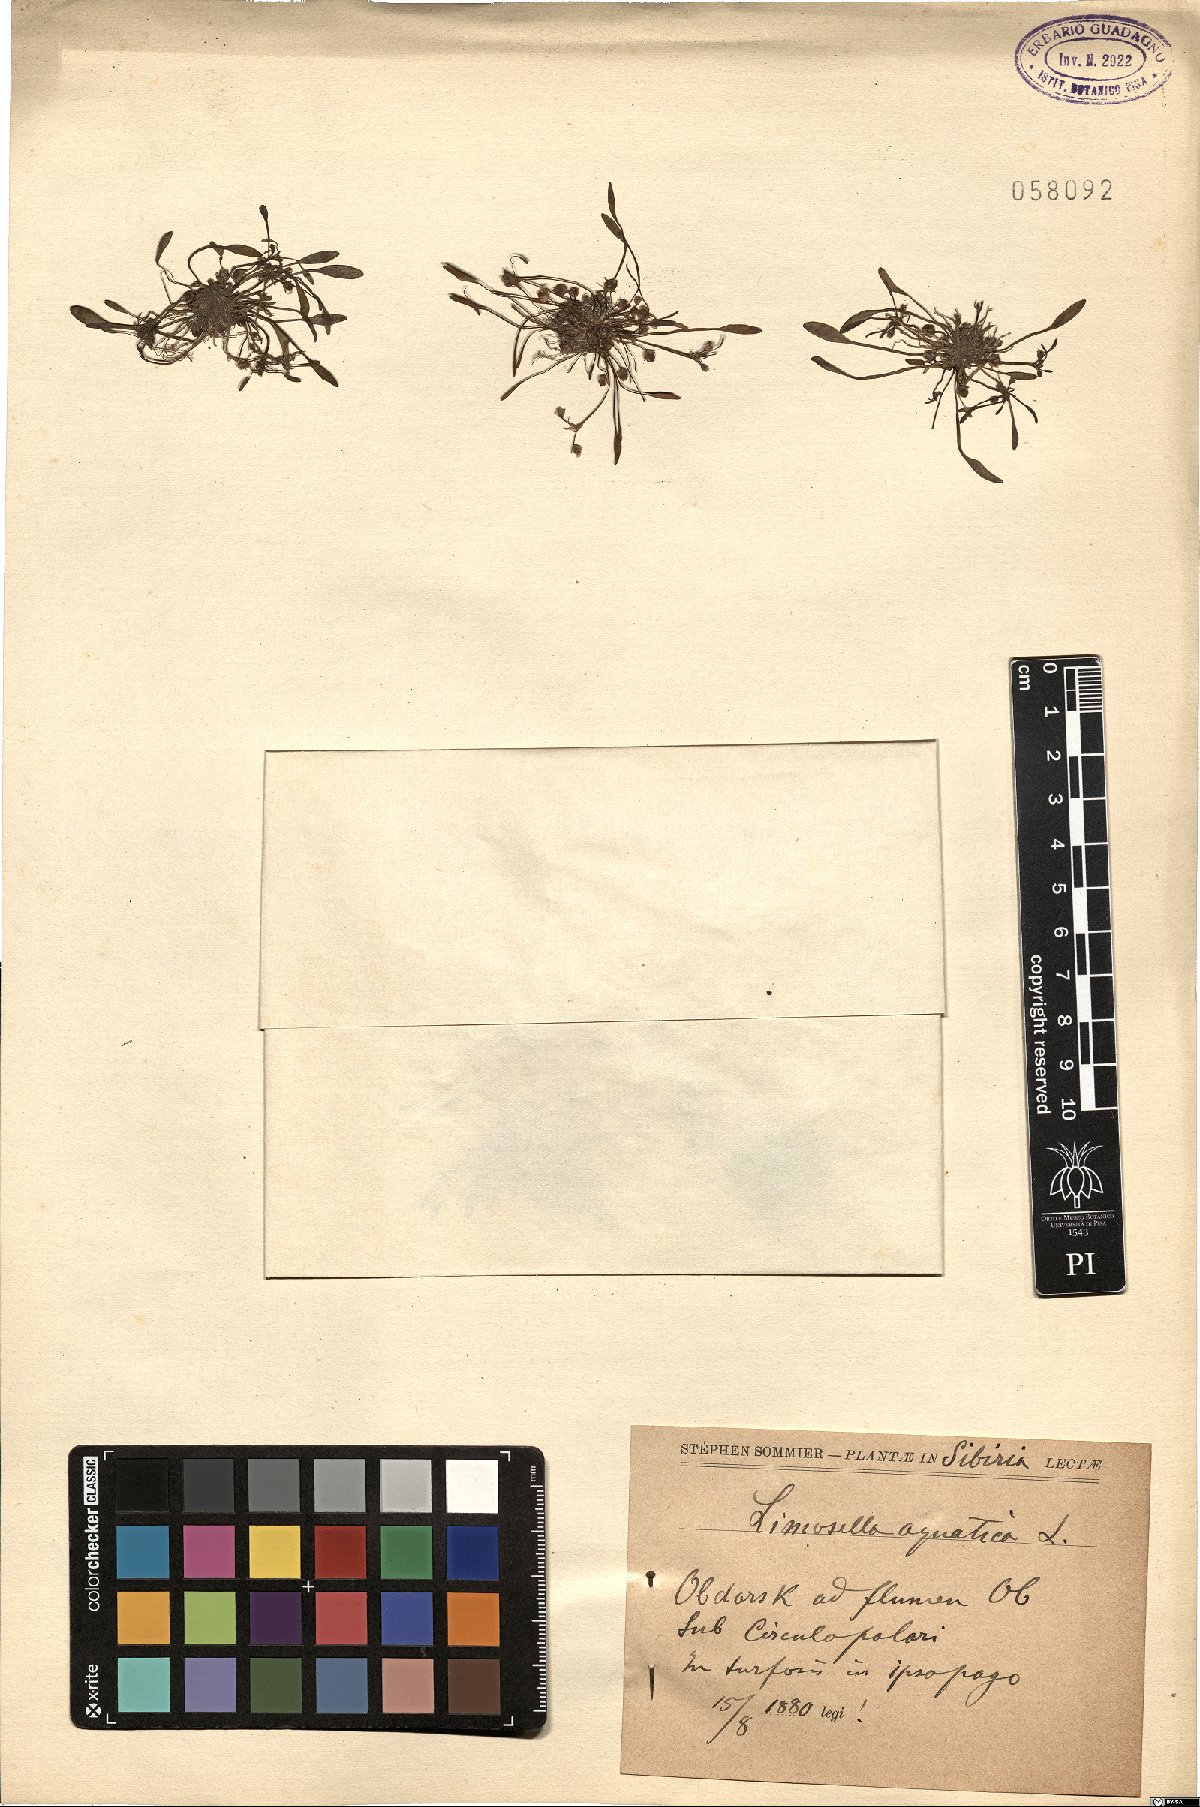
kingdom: Plantae
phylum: Tracheophyta
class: Magnoliopsida
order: Lamiales
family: Scrophulariaceae
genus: Limosella
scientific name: Limosella aquatica
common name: Mudwort
